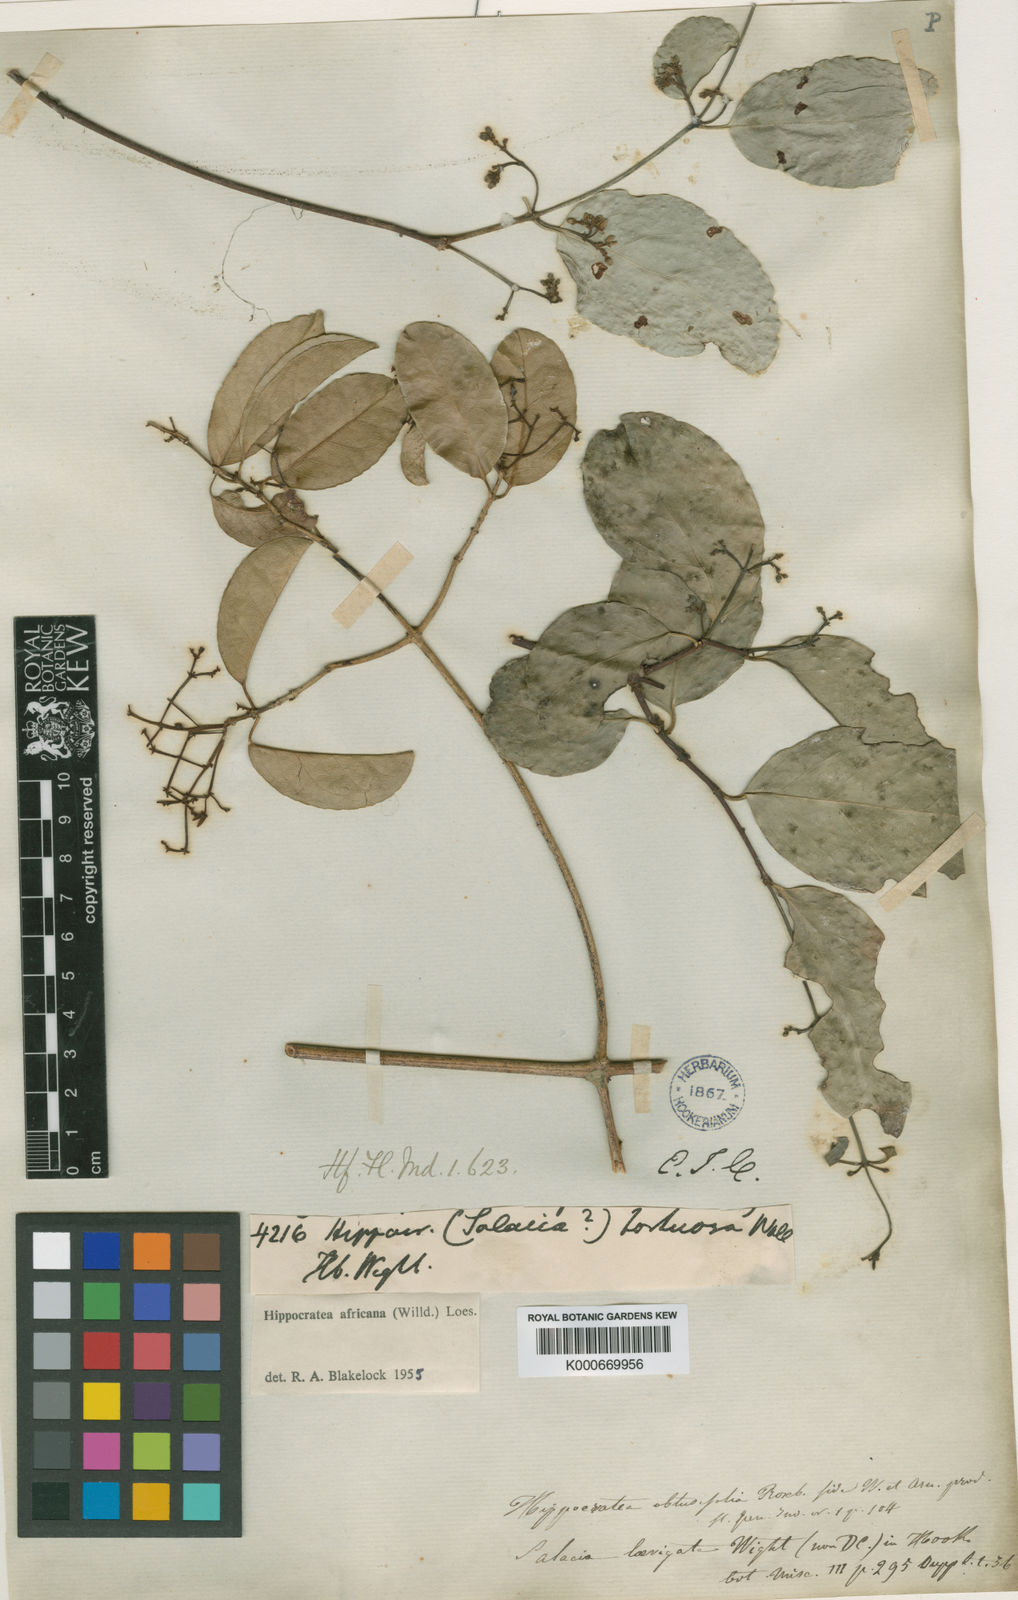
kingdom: Plantae
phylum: Tracheophyta
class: Magnoliopsida
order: Celastrales
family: Celastraceae
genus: Loeseneriella
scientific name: Loeseneriella
